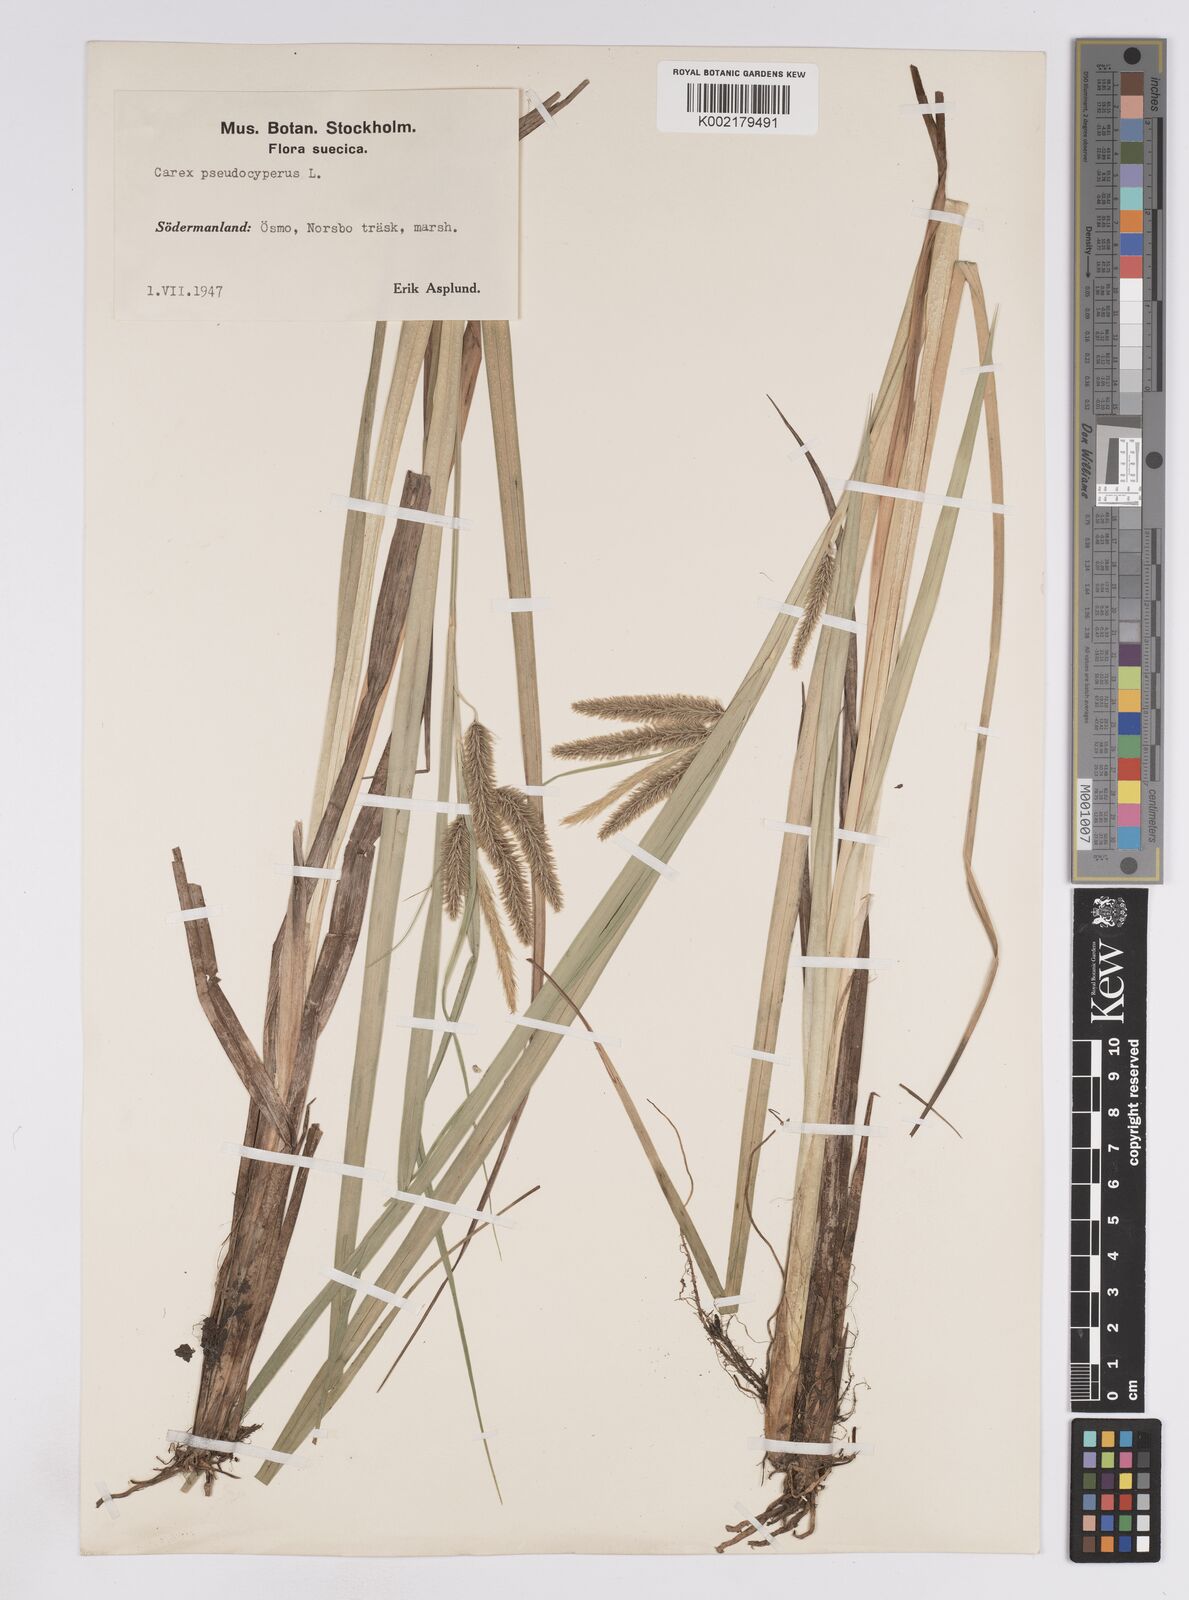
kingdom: Plantae
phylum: Tracheophyta
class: Liliopsida
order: Poales
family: Cyperaceae
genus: Carex
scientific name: Carex pseudocyperus
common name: Cyperus sedge
